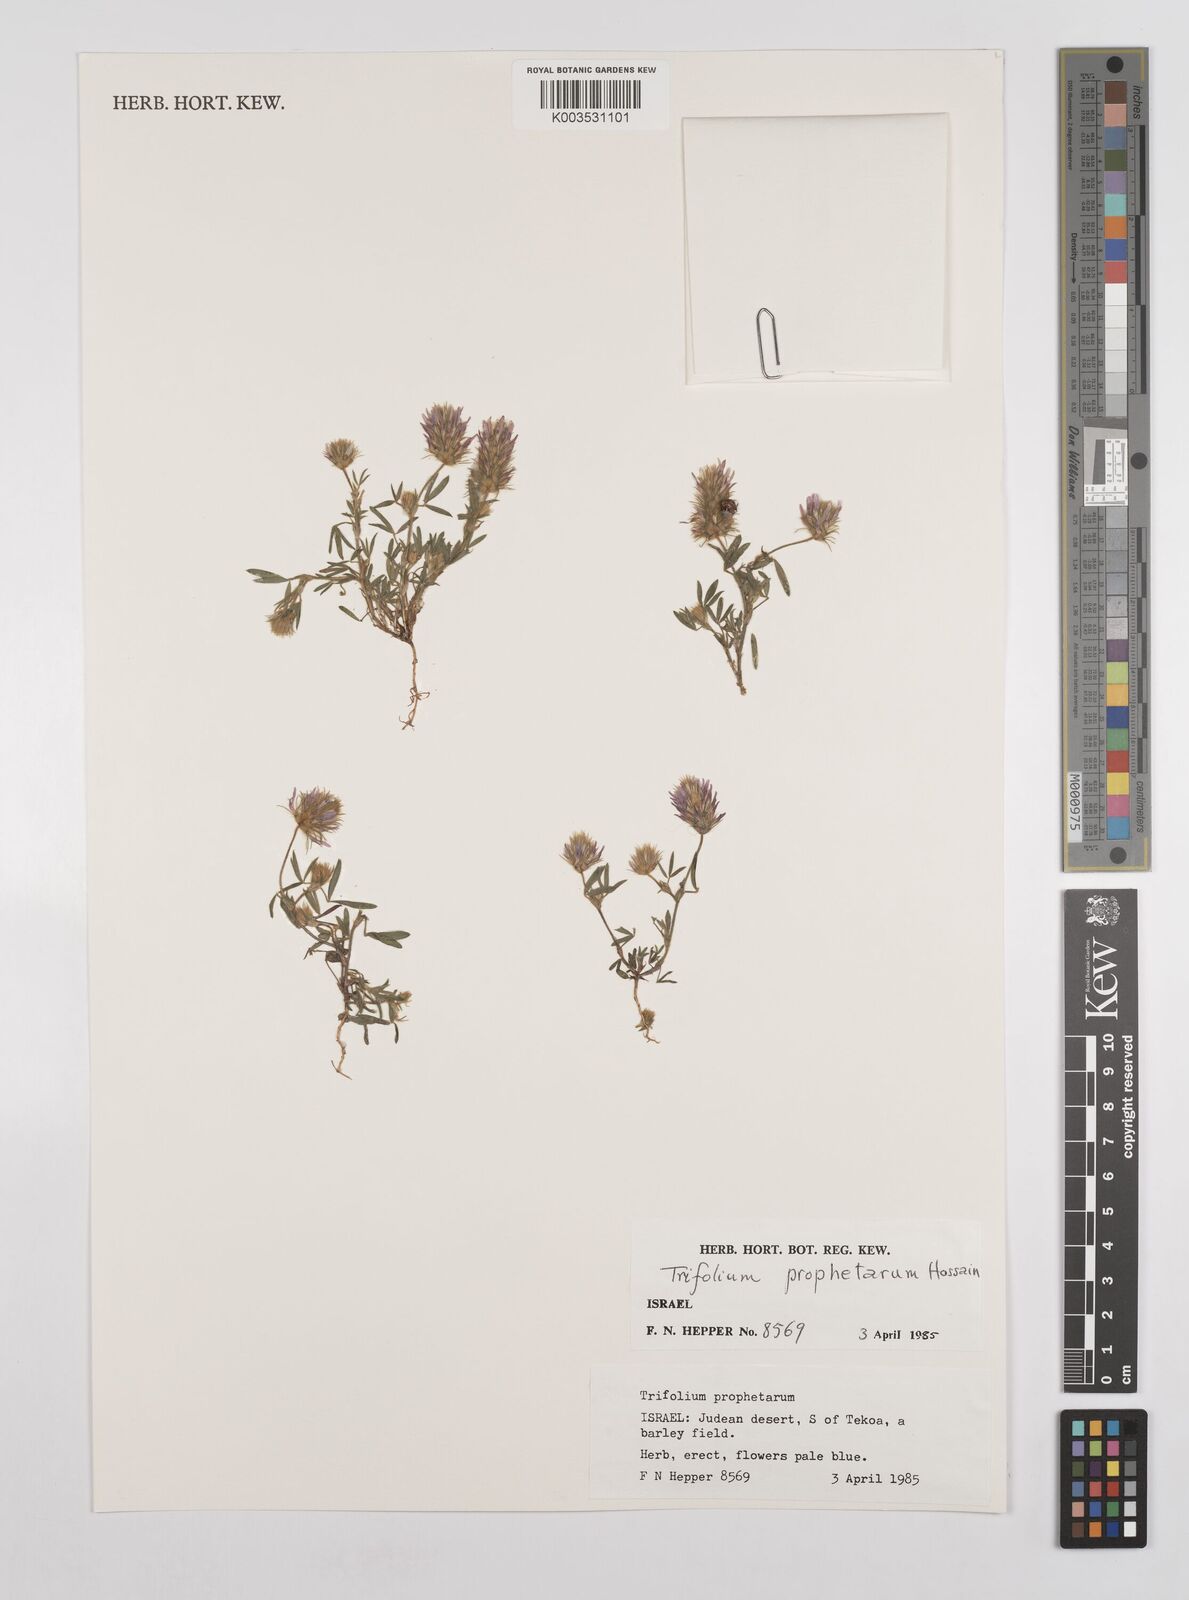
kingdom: Plantae
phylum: Tracheophyta
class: Magnoliopsida
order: Fabales
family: Fabaceae
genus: Trifolium
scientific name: Trifolium prophetarum
